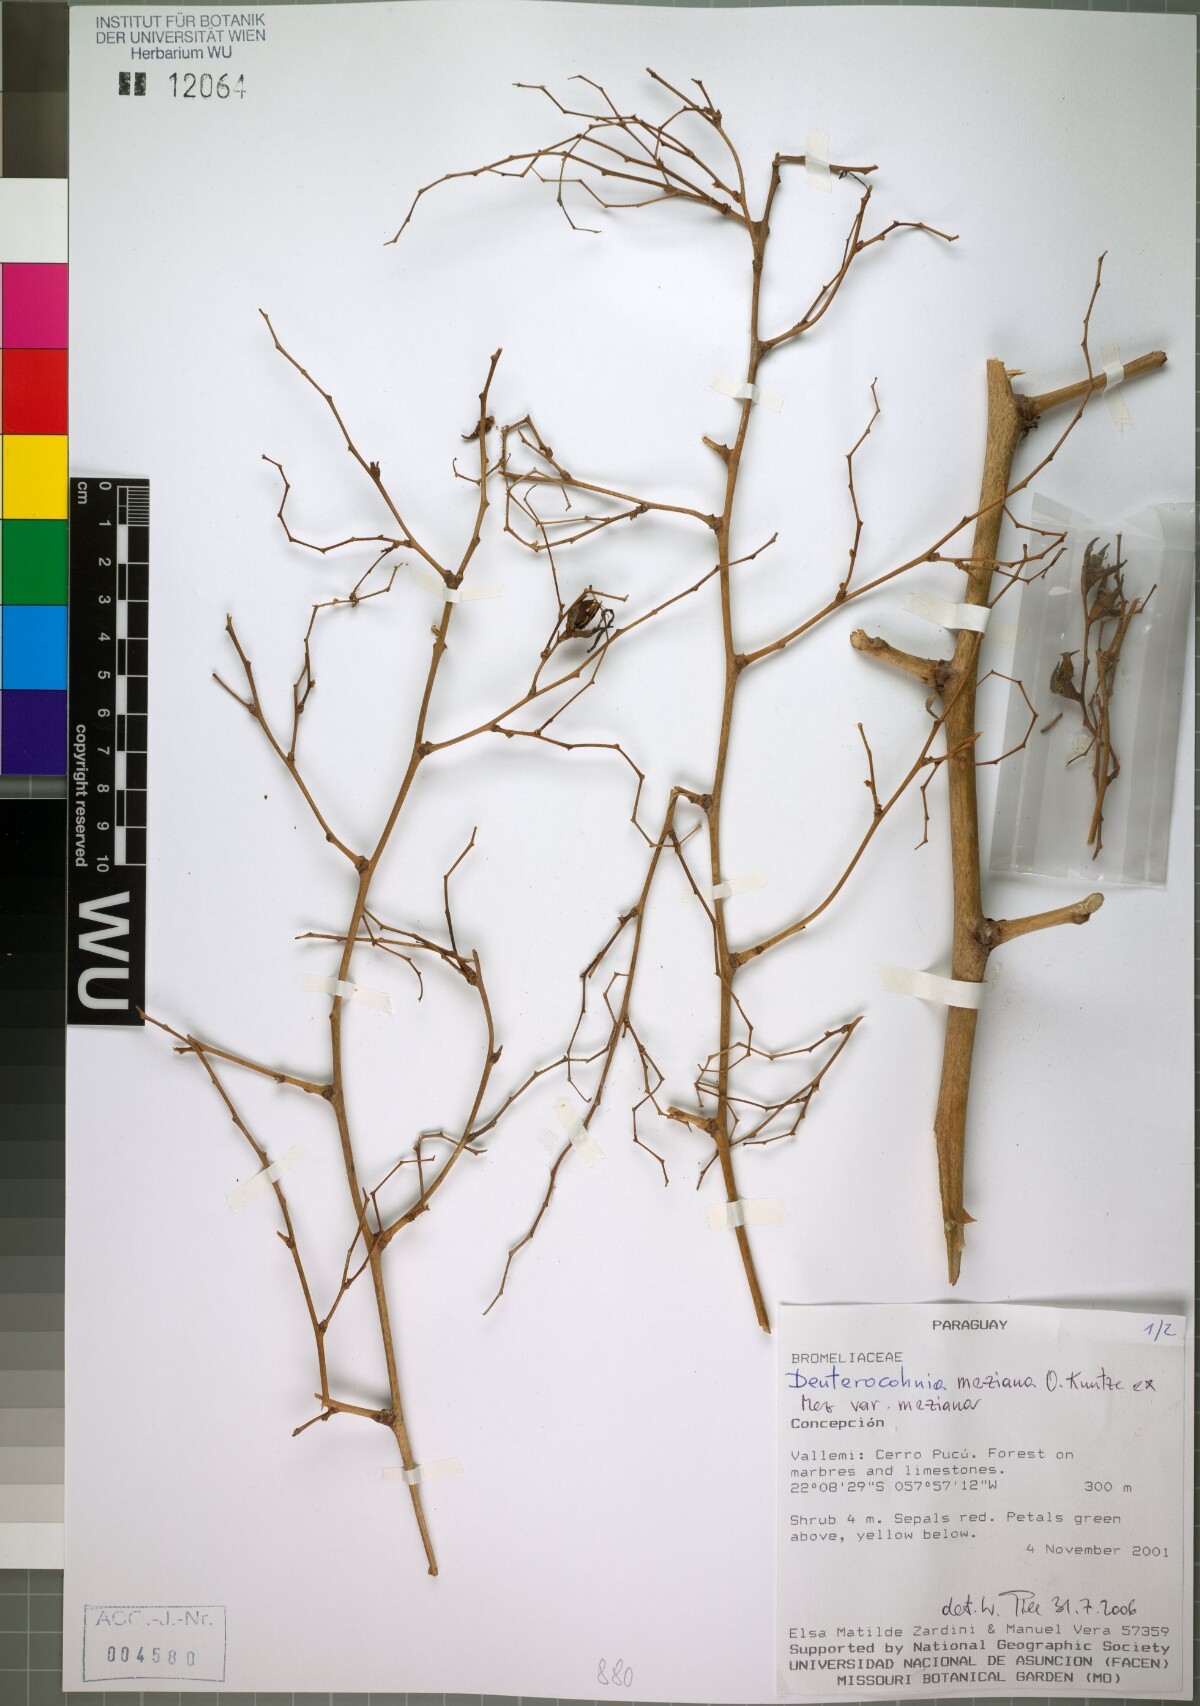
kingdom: Plantae
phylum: Tracheophyta
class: Liliopsida
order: Poales
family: Bromeliaceae
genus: Deuterocohnia
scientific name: Deuterocohnia meziana
